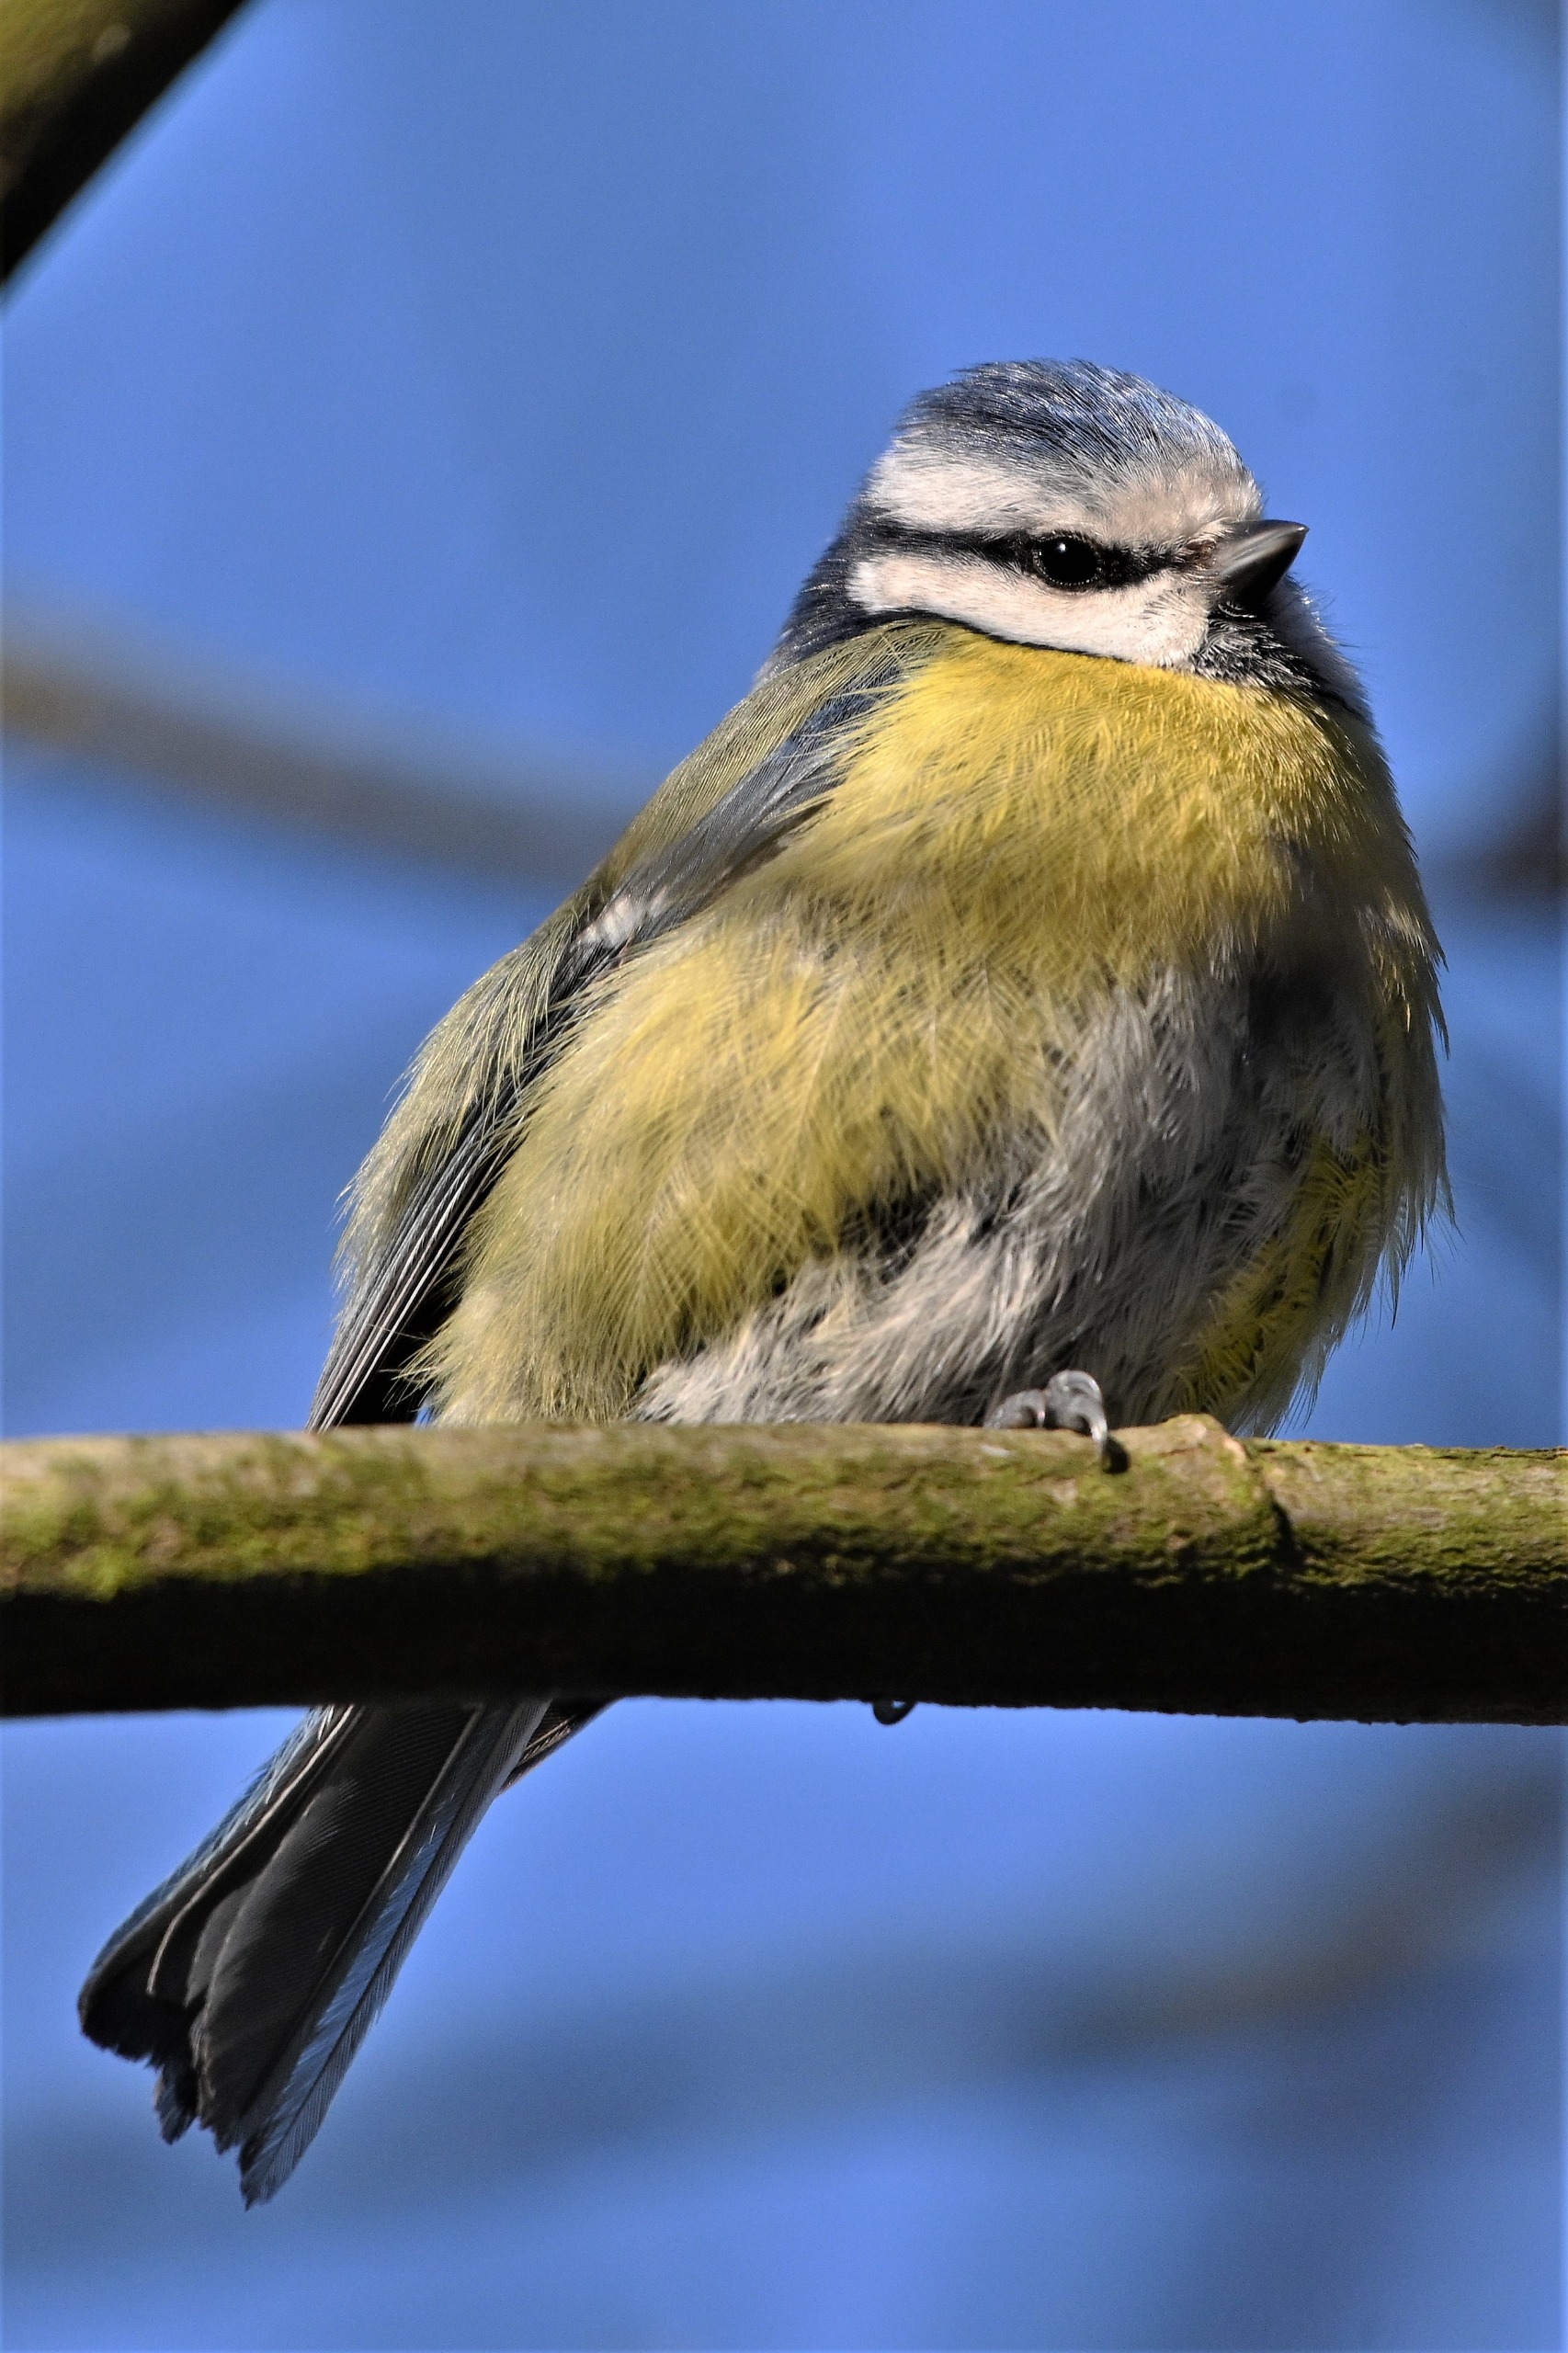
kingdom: Animalia
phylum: Chordata
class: Aves
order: Passeriformes
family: Paridae
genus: Cyanistes
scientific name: Cyanistes caeruleus
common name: Blåmejse
